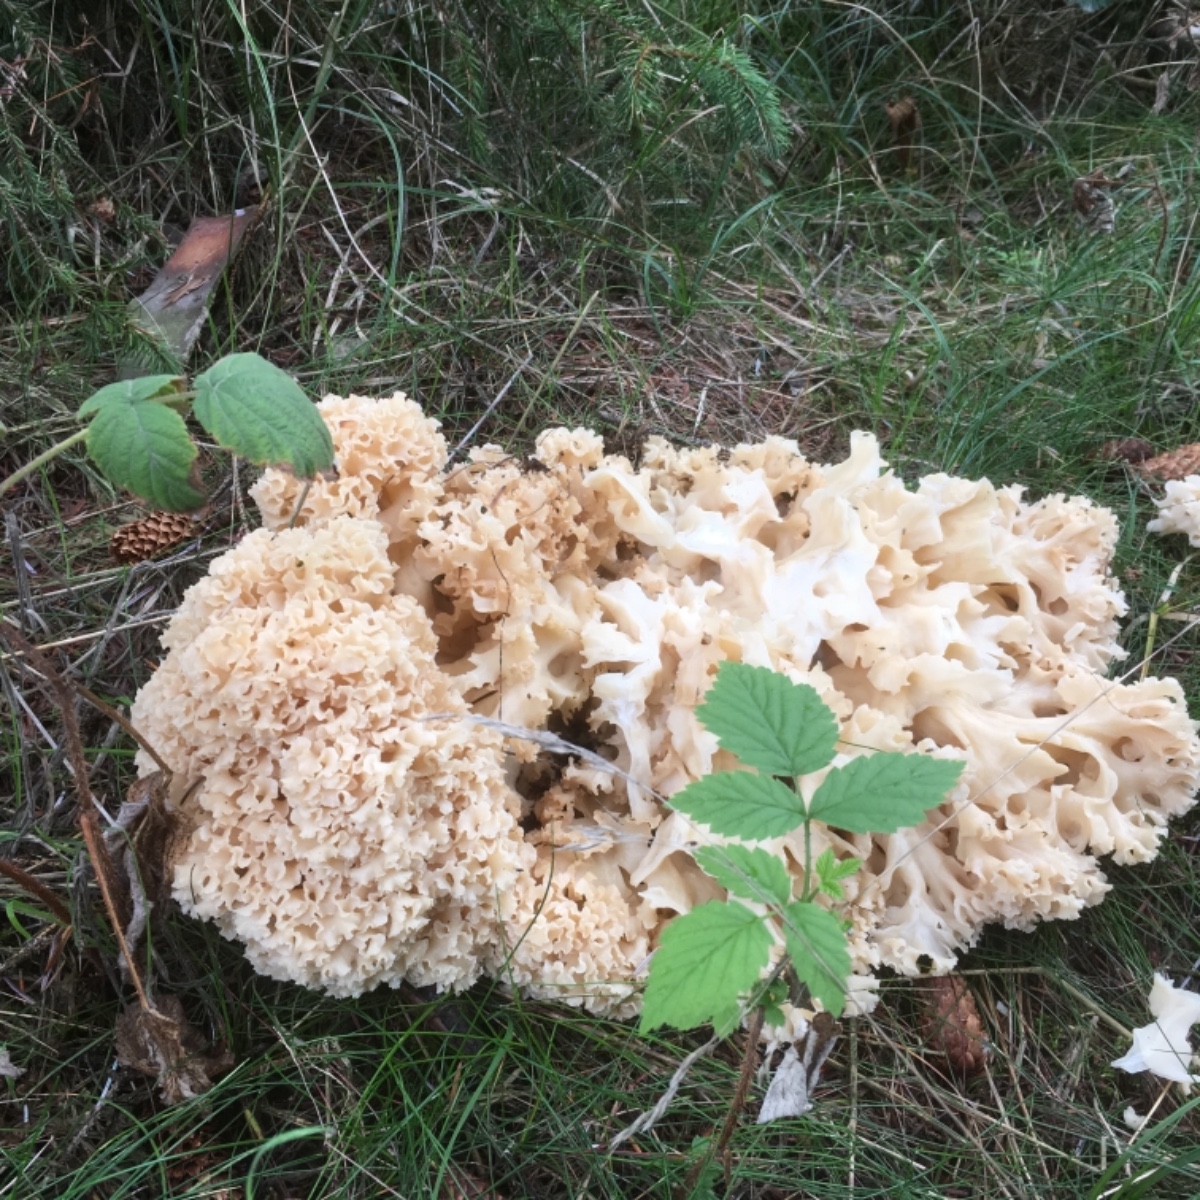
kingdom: Fungi
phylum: Basidiomycota
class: Agaricomycetes
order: Polyporales
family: Sparassidaceae
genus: Sparassis
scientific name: Sparassis crispa
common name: kruset blomkålssvamp
